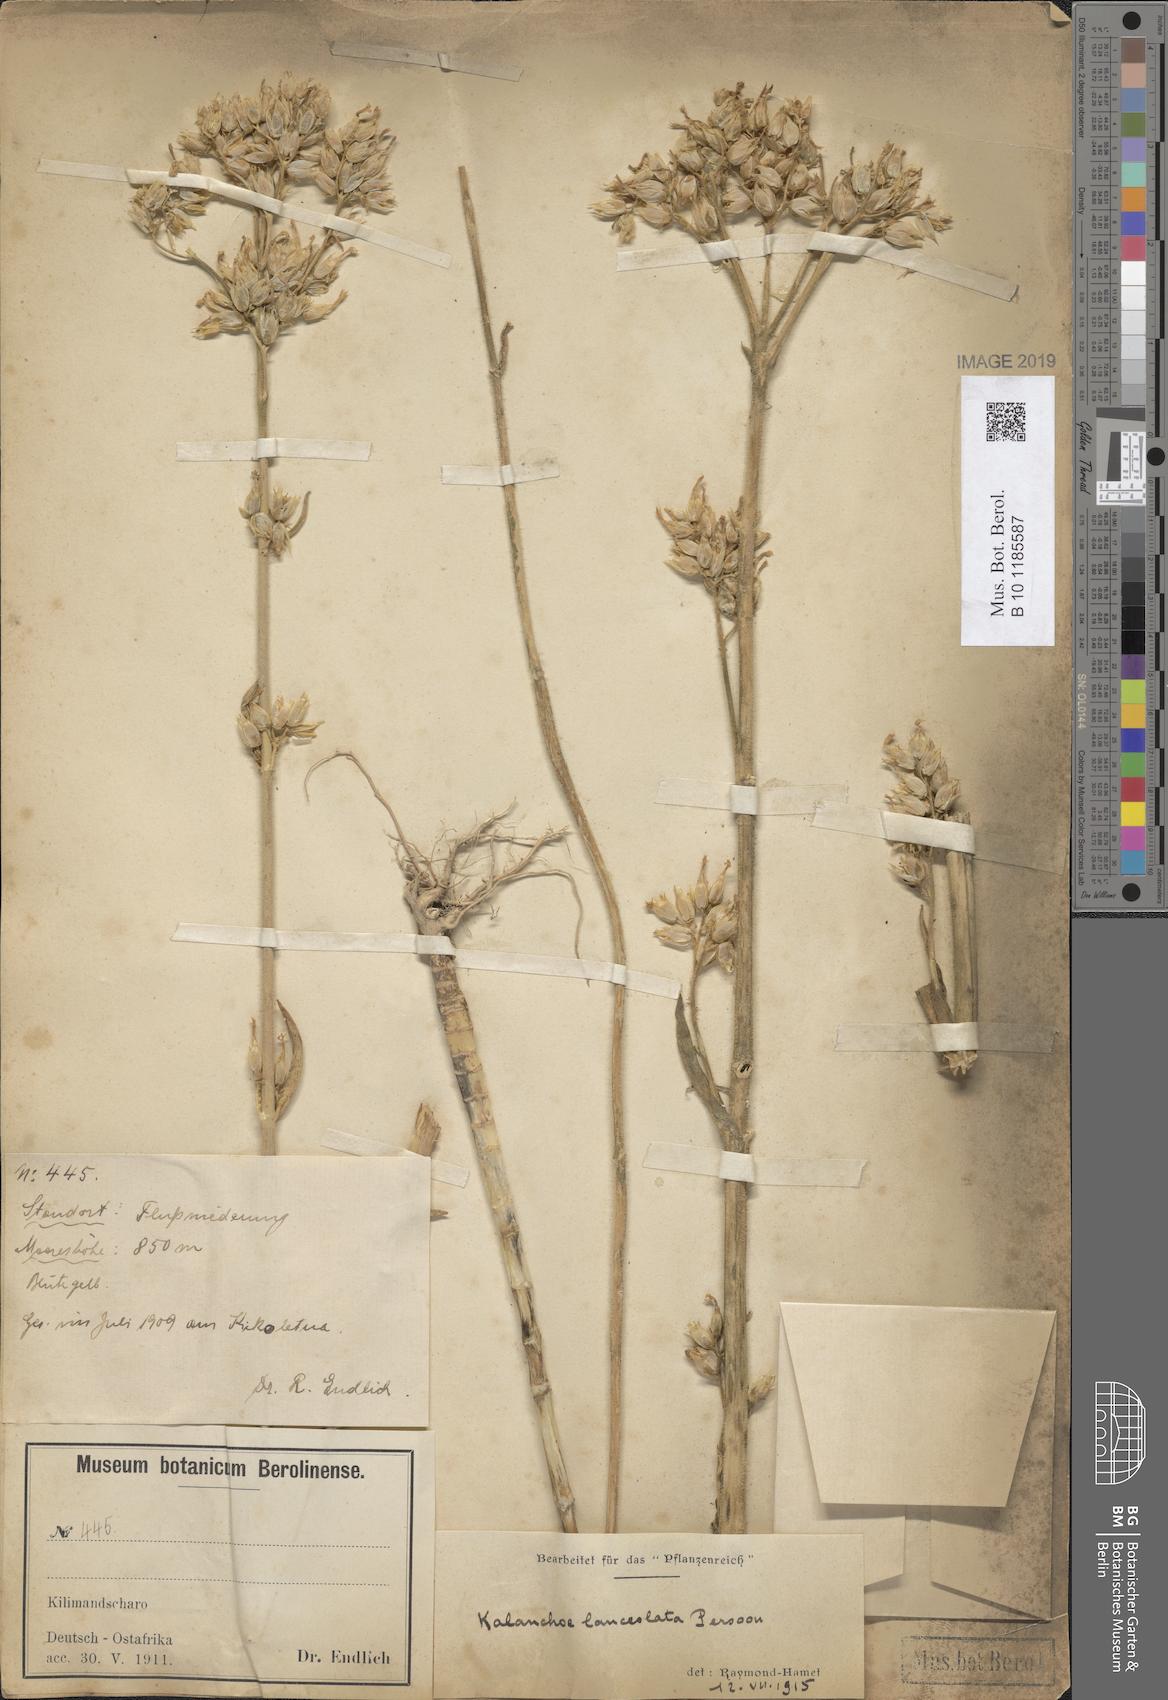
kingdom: Plantae
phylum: Tracheophyta
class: Magnoliopsida
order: Saxifragales
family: Crassulaceae
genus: Kalanchoe
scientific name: Kalanchoe lanceolata
